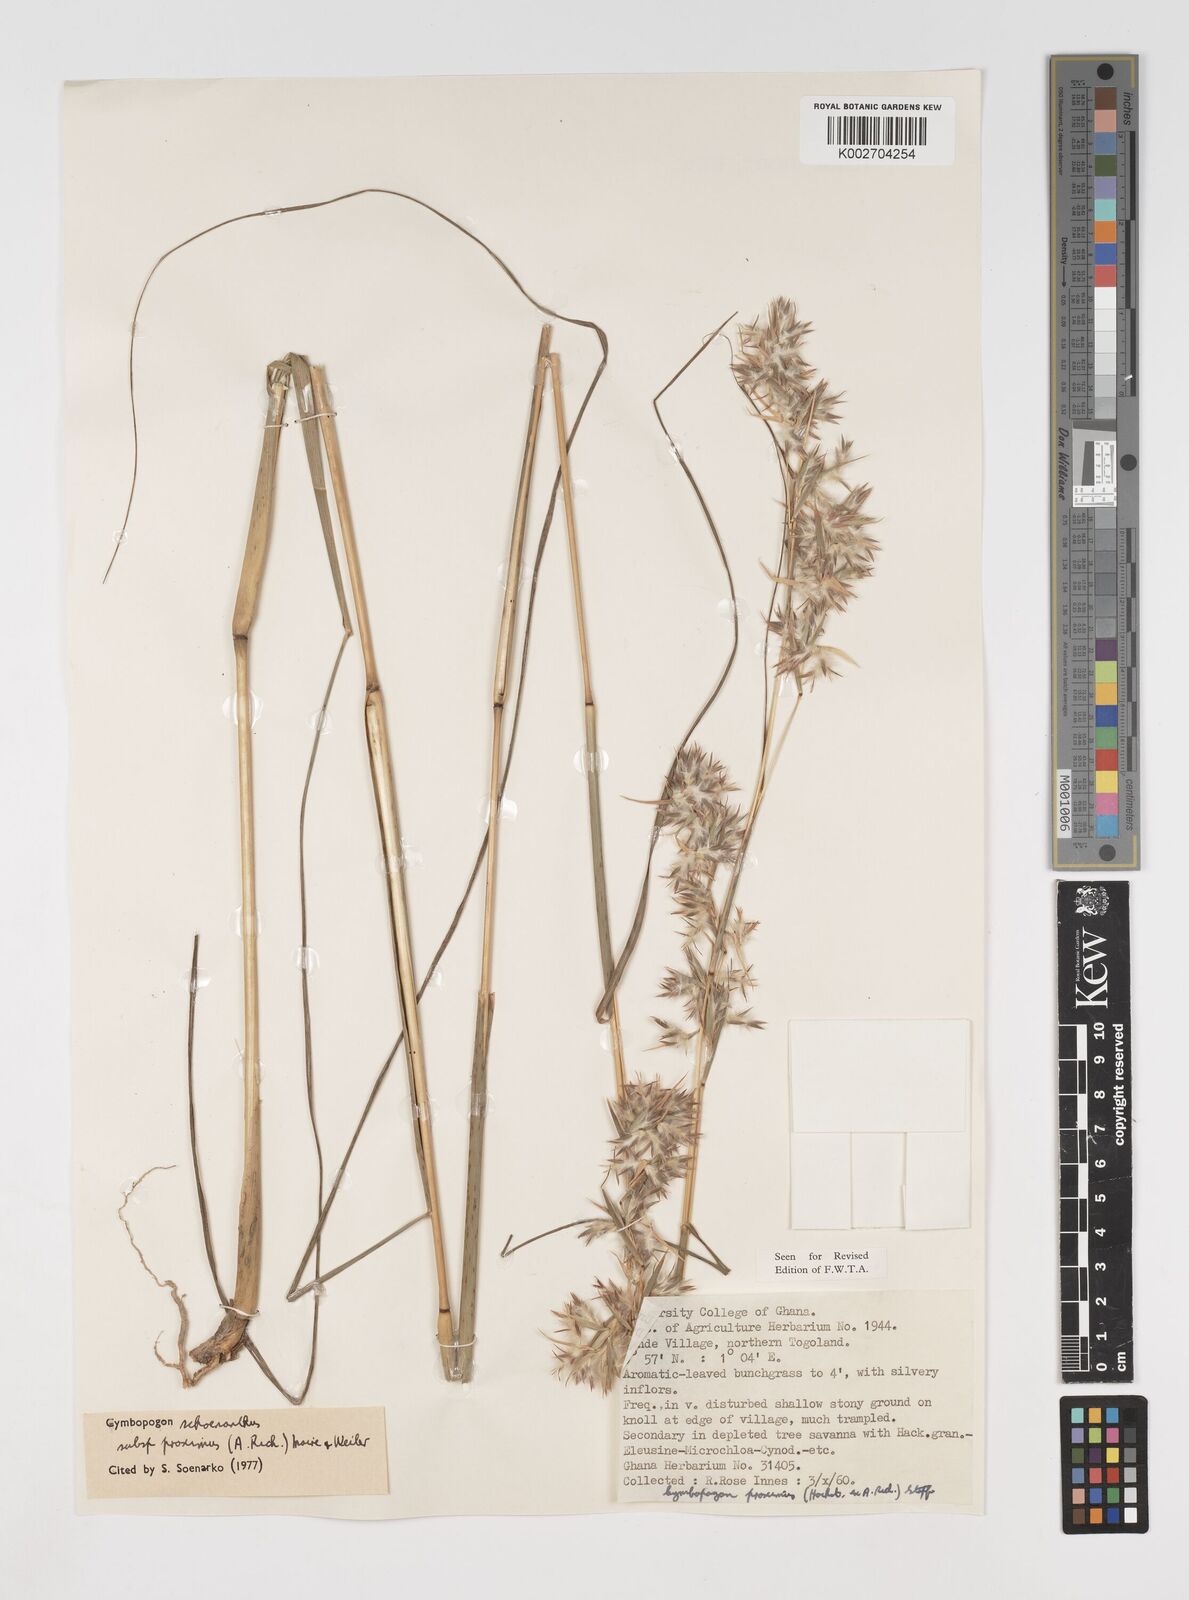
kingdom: Plantae
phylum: Tracheophyta
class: Liliopsida
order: Poales
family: Poaceae
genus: Cymbopogon
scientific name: Cymbopogon schoenanthus
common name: Geranium grass
